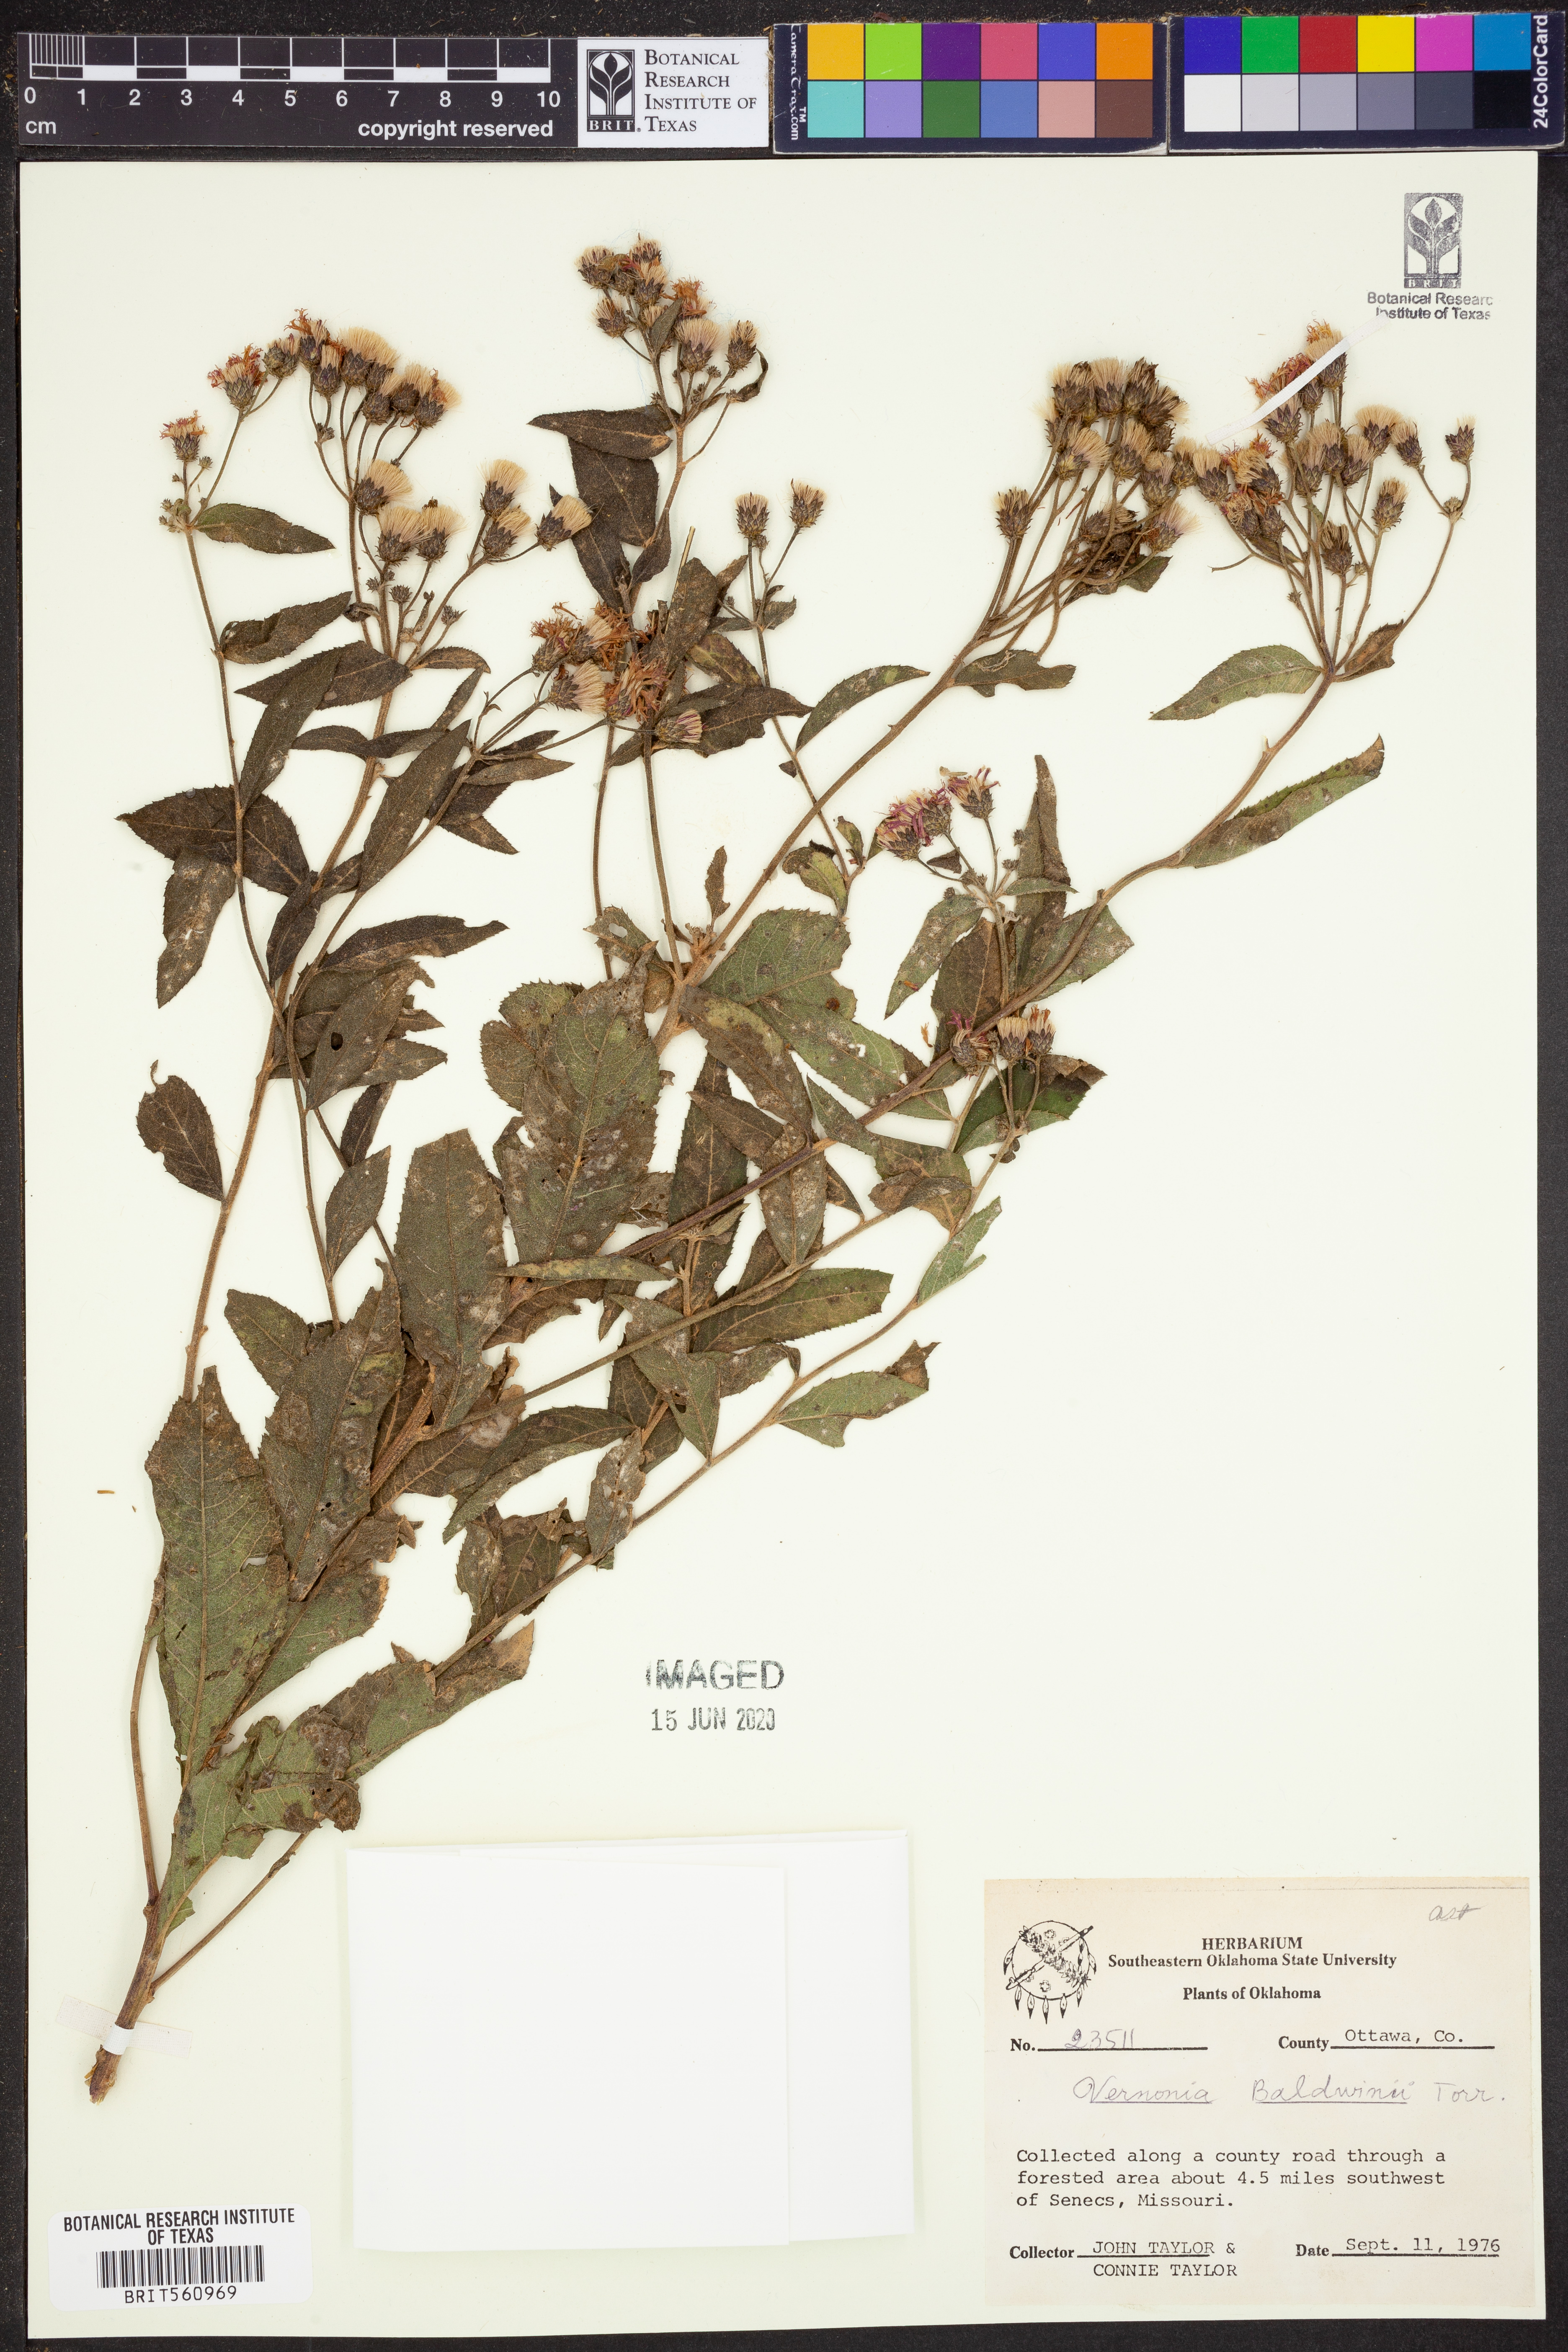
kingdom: Plantae
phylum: Tracheophyta
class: Magnoliopsida
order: Asterales
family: Asteraceae
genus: Vernonia
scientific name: Vernonia baldwinii
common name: Western ironweed
